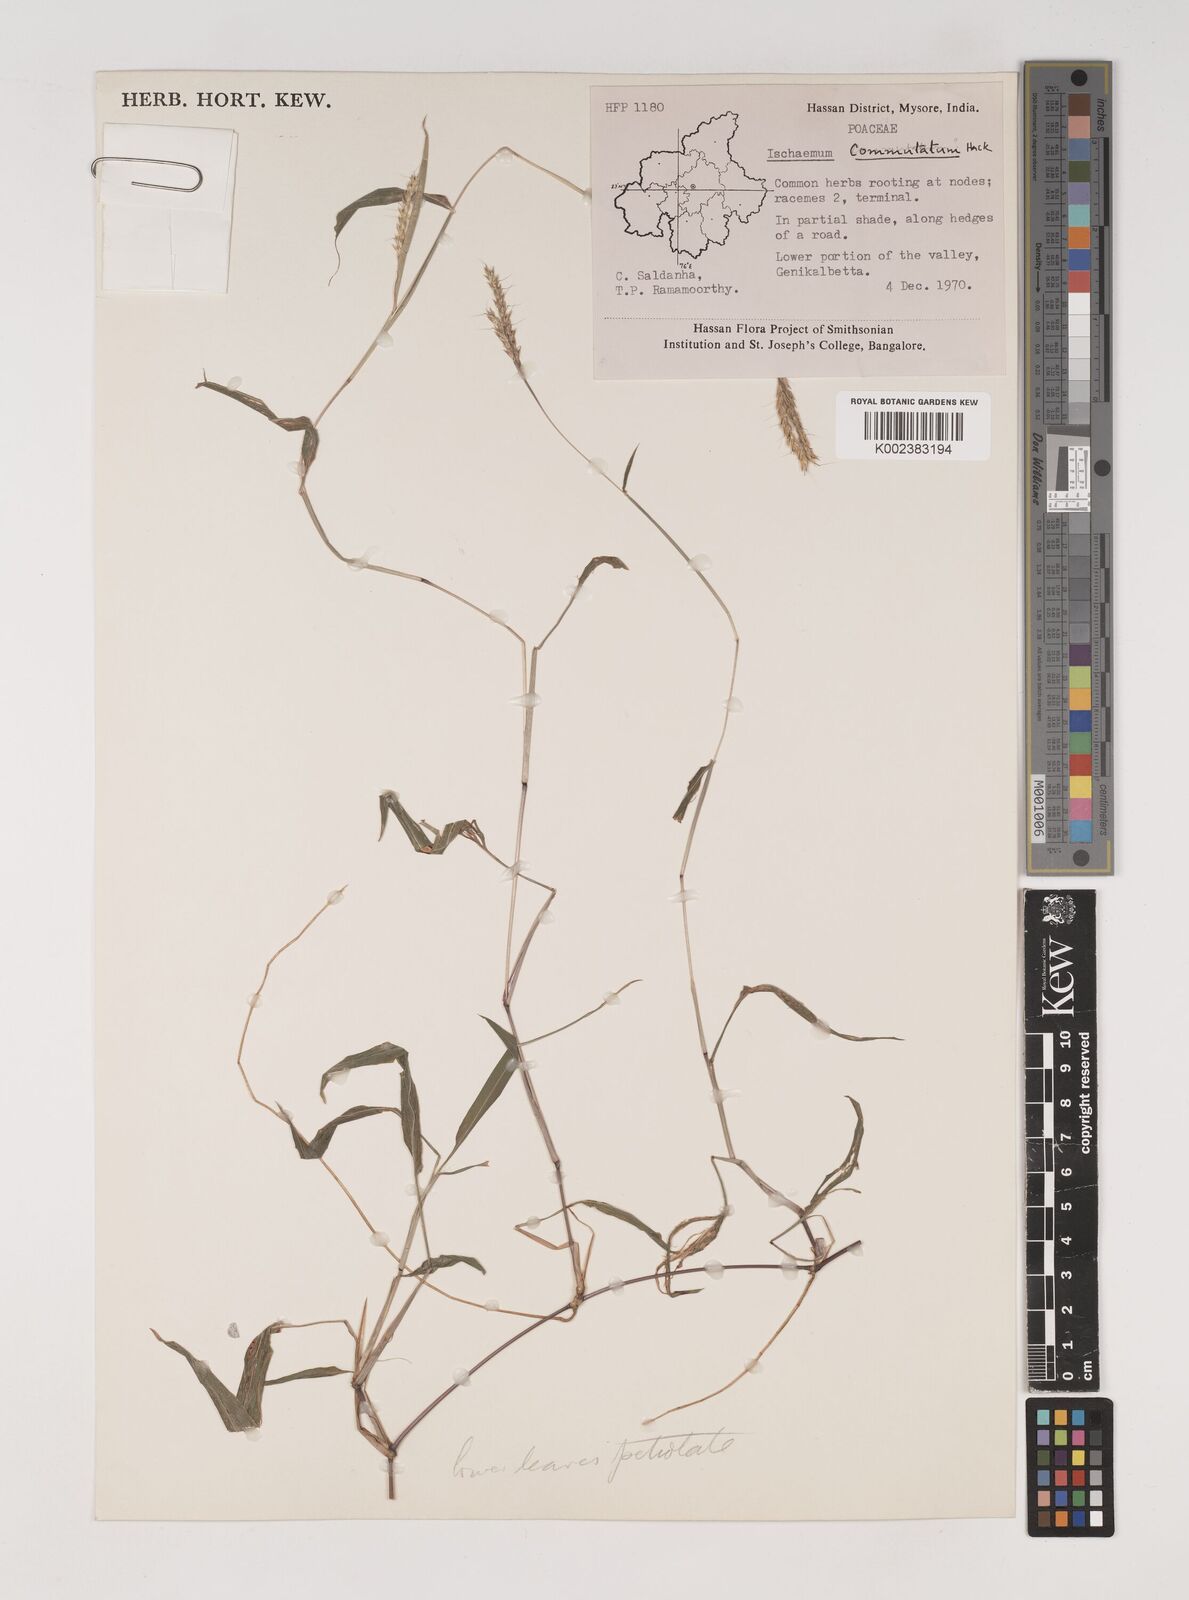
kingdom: Plantae
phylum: Tracheophyta
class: Liliopsida
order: Poales
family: Poaceae
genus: Ischaemum
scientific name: Ischaemum commutatum
